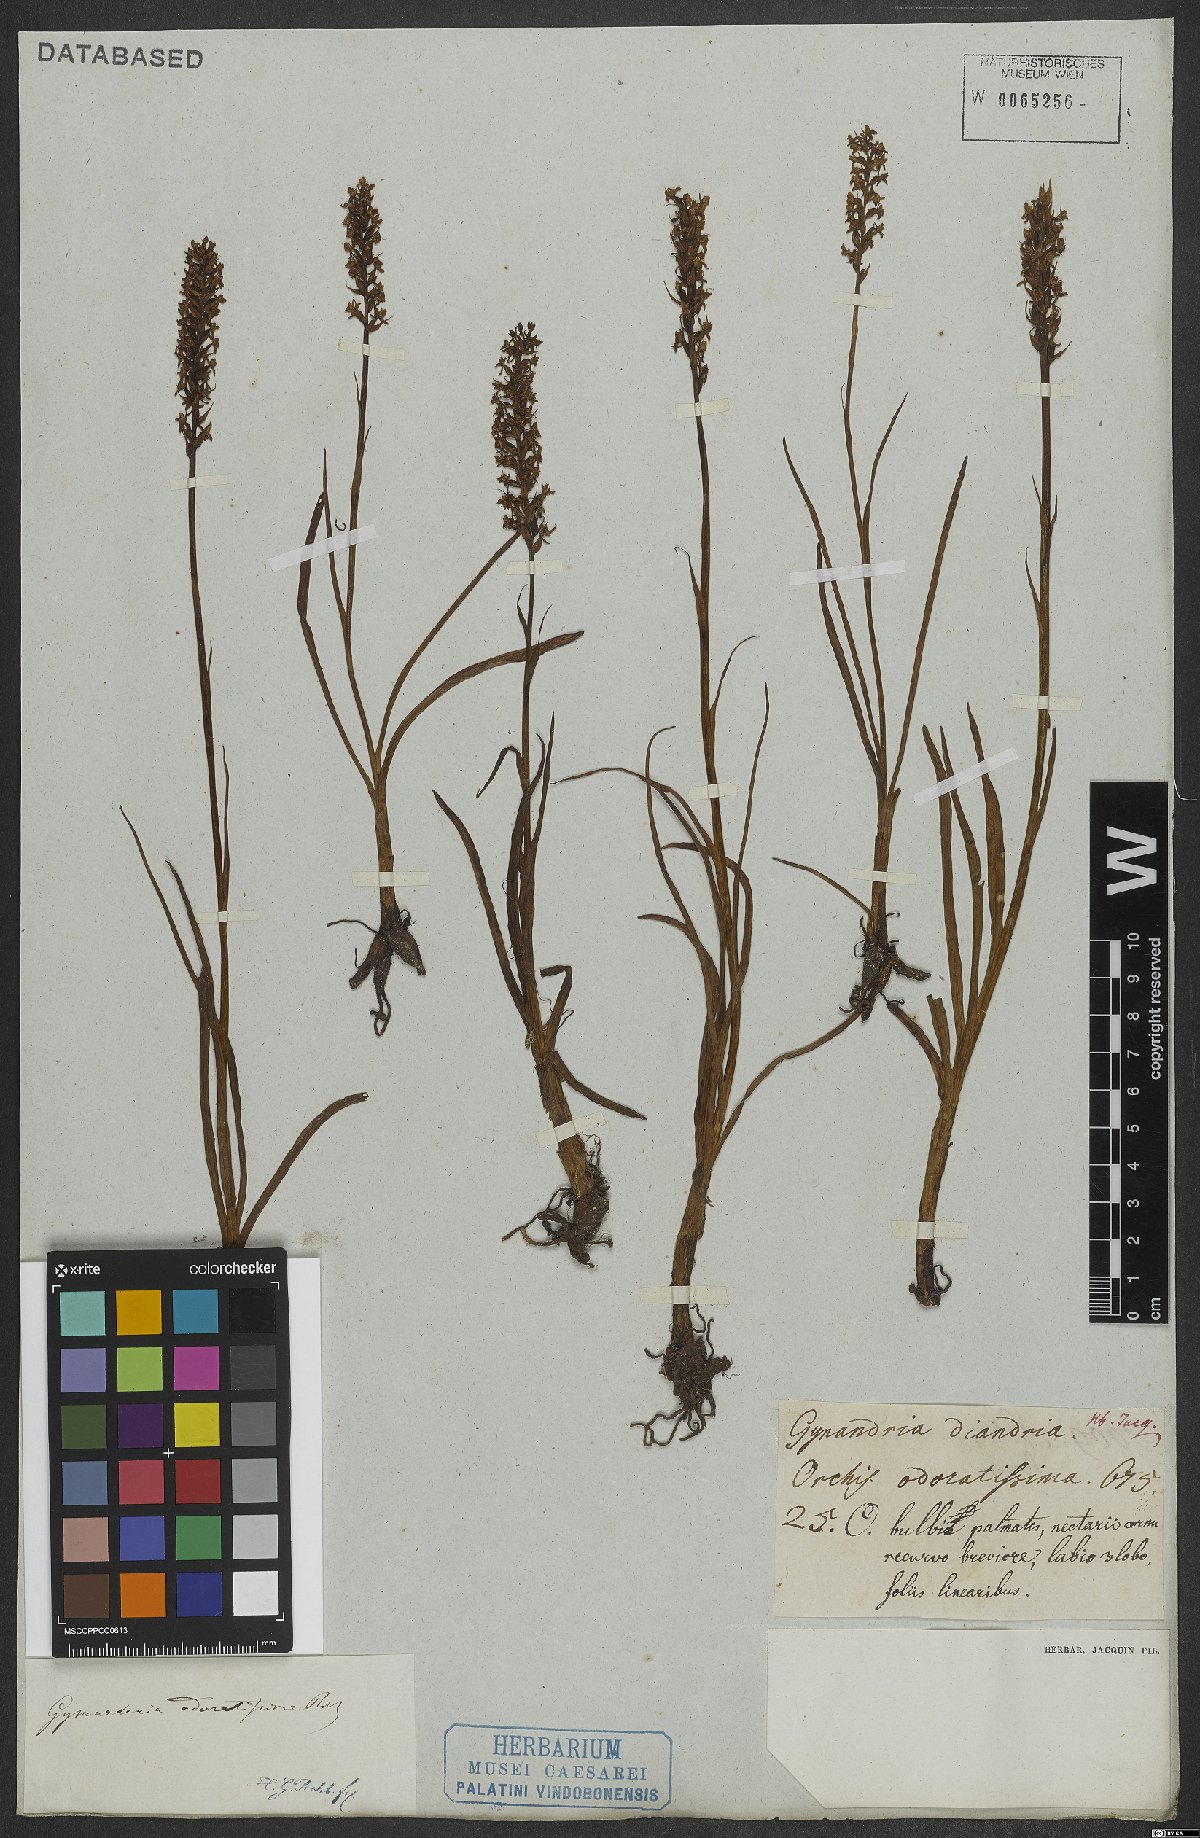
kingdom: Plantae
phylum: Tracheophyta
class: Liliopsida
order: Asparagales
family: Orchidaceae
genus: Gymnadenia
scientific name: Gymnadenia odoratissima
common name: Scented gymnadenia
